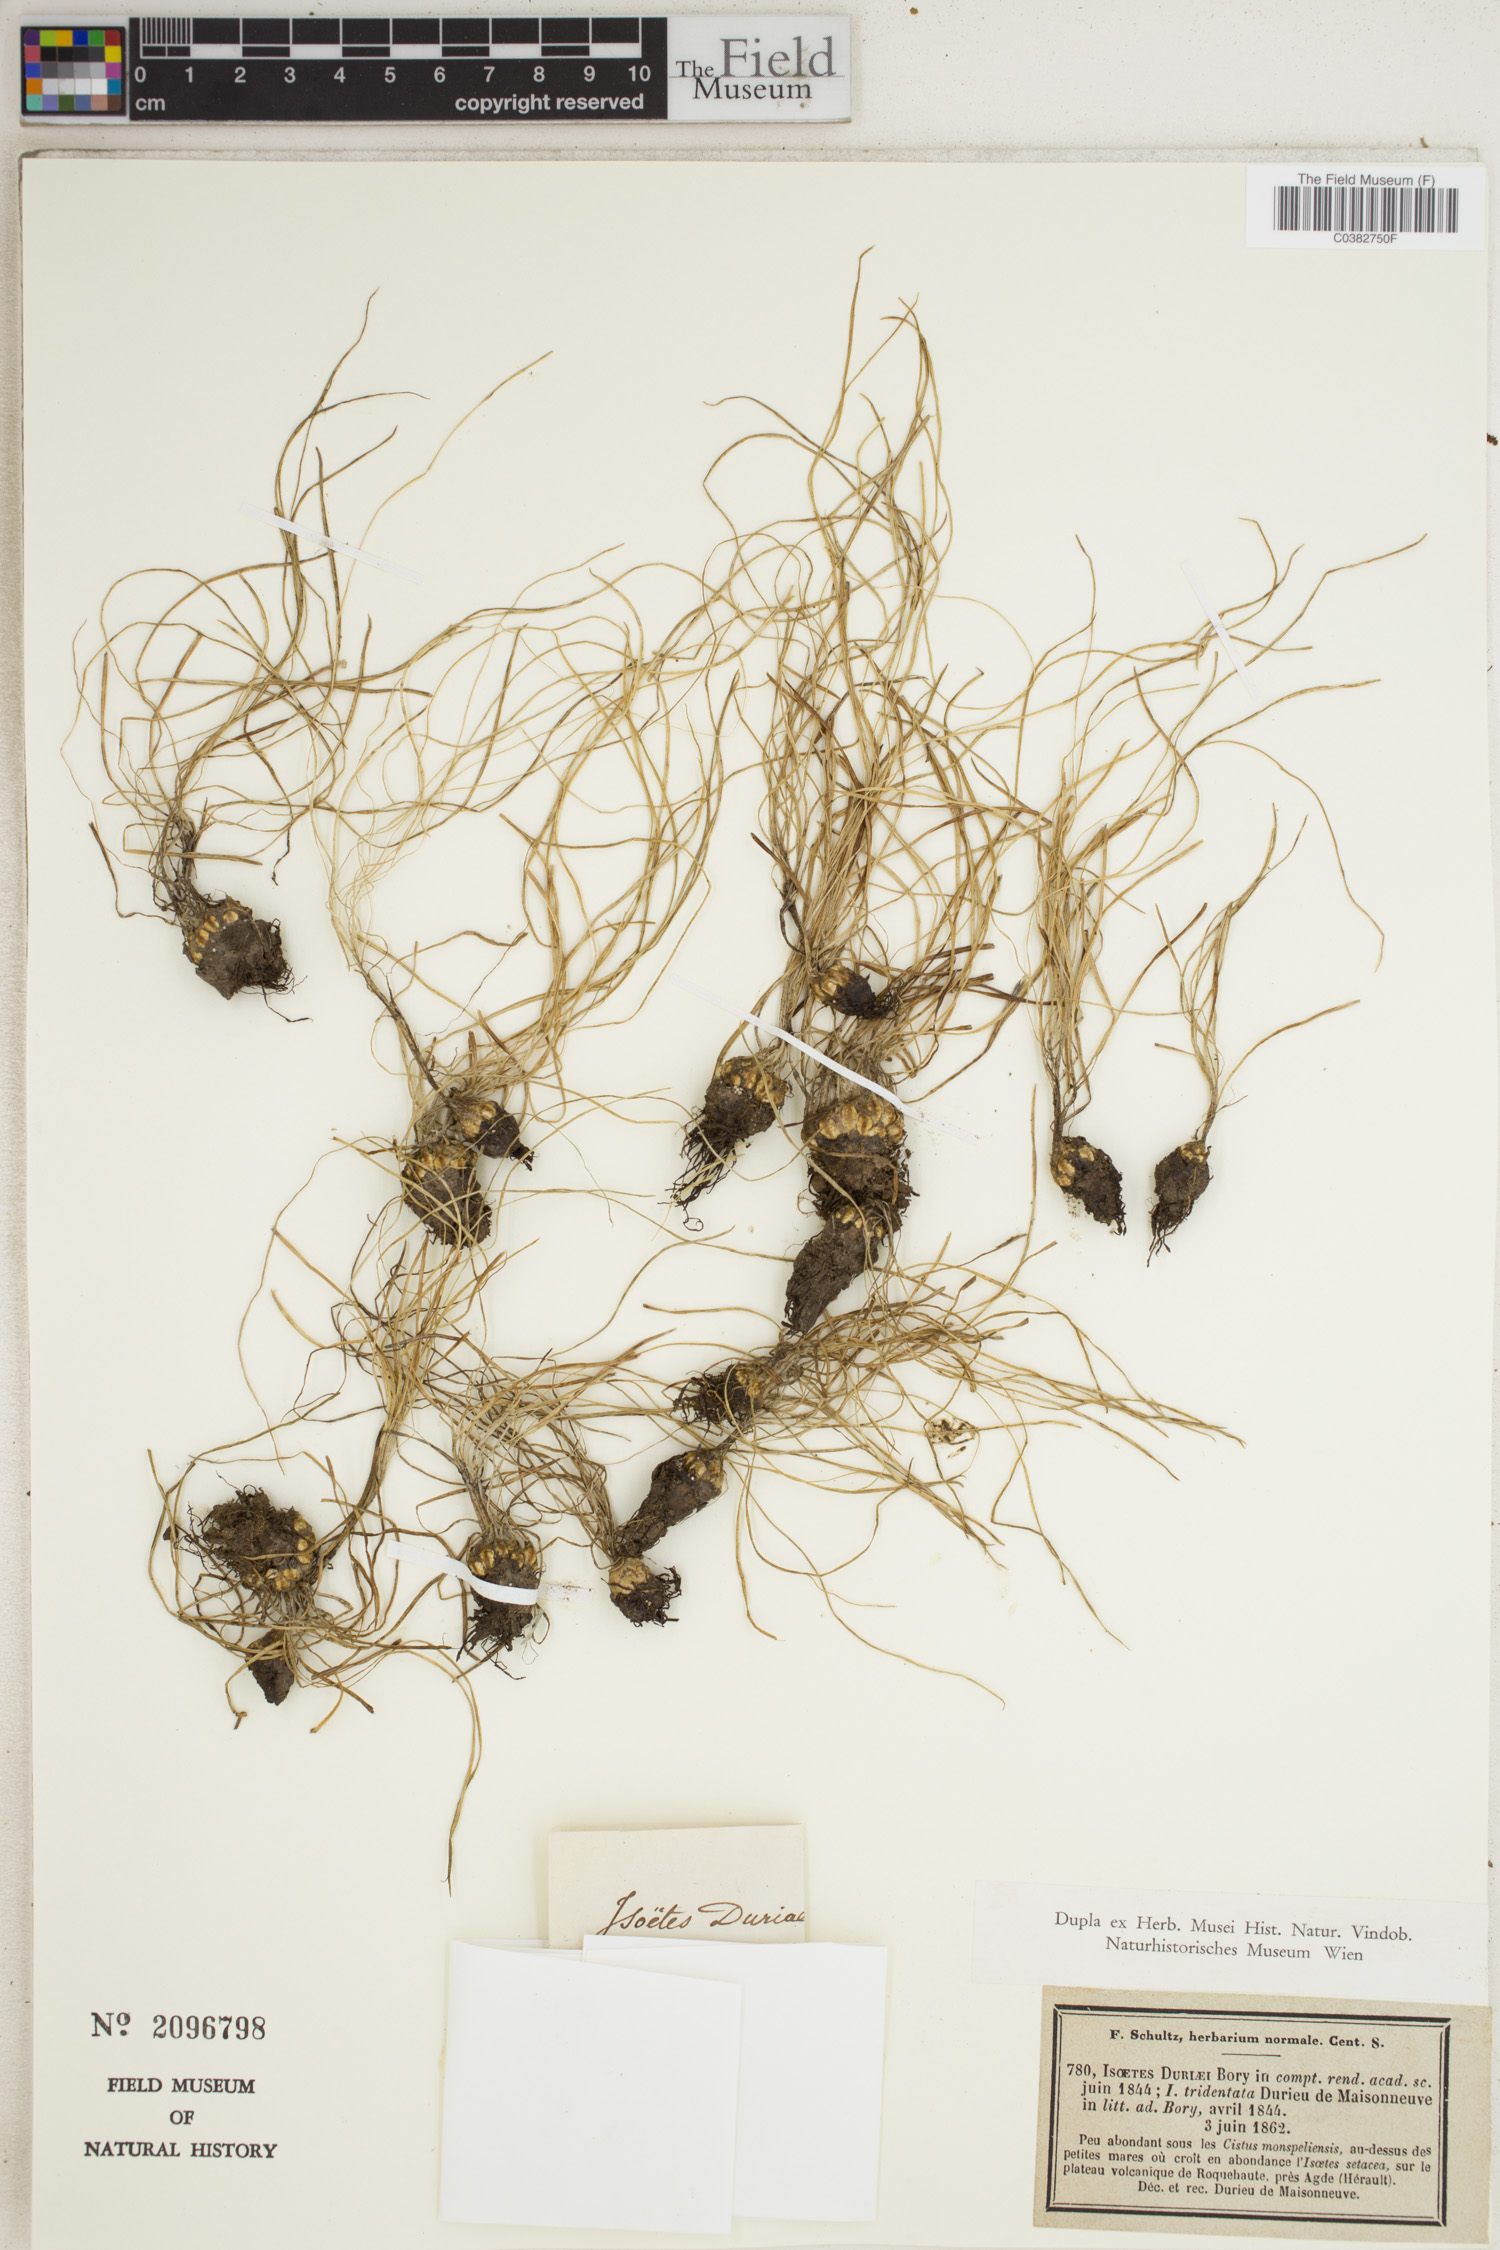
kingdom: Plantae
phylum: Tracheophyta
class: Lycopodiopsida
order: Isoetales
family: Isoetaceae
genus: Isoetes
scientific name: Isoetes duriei
